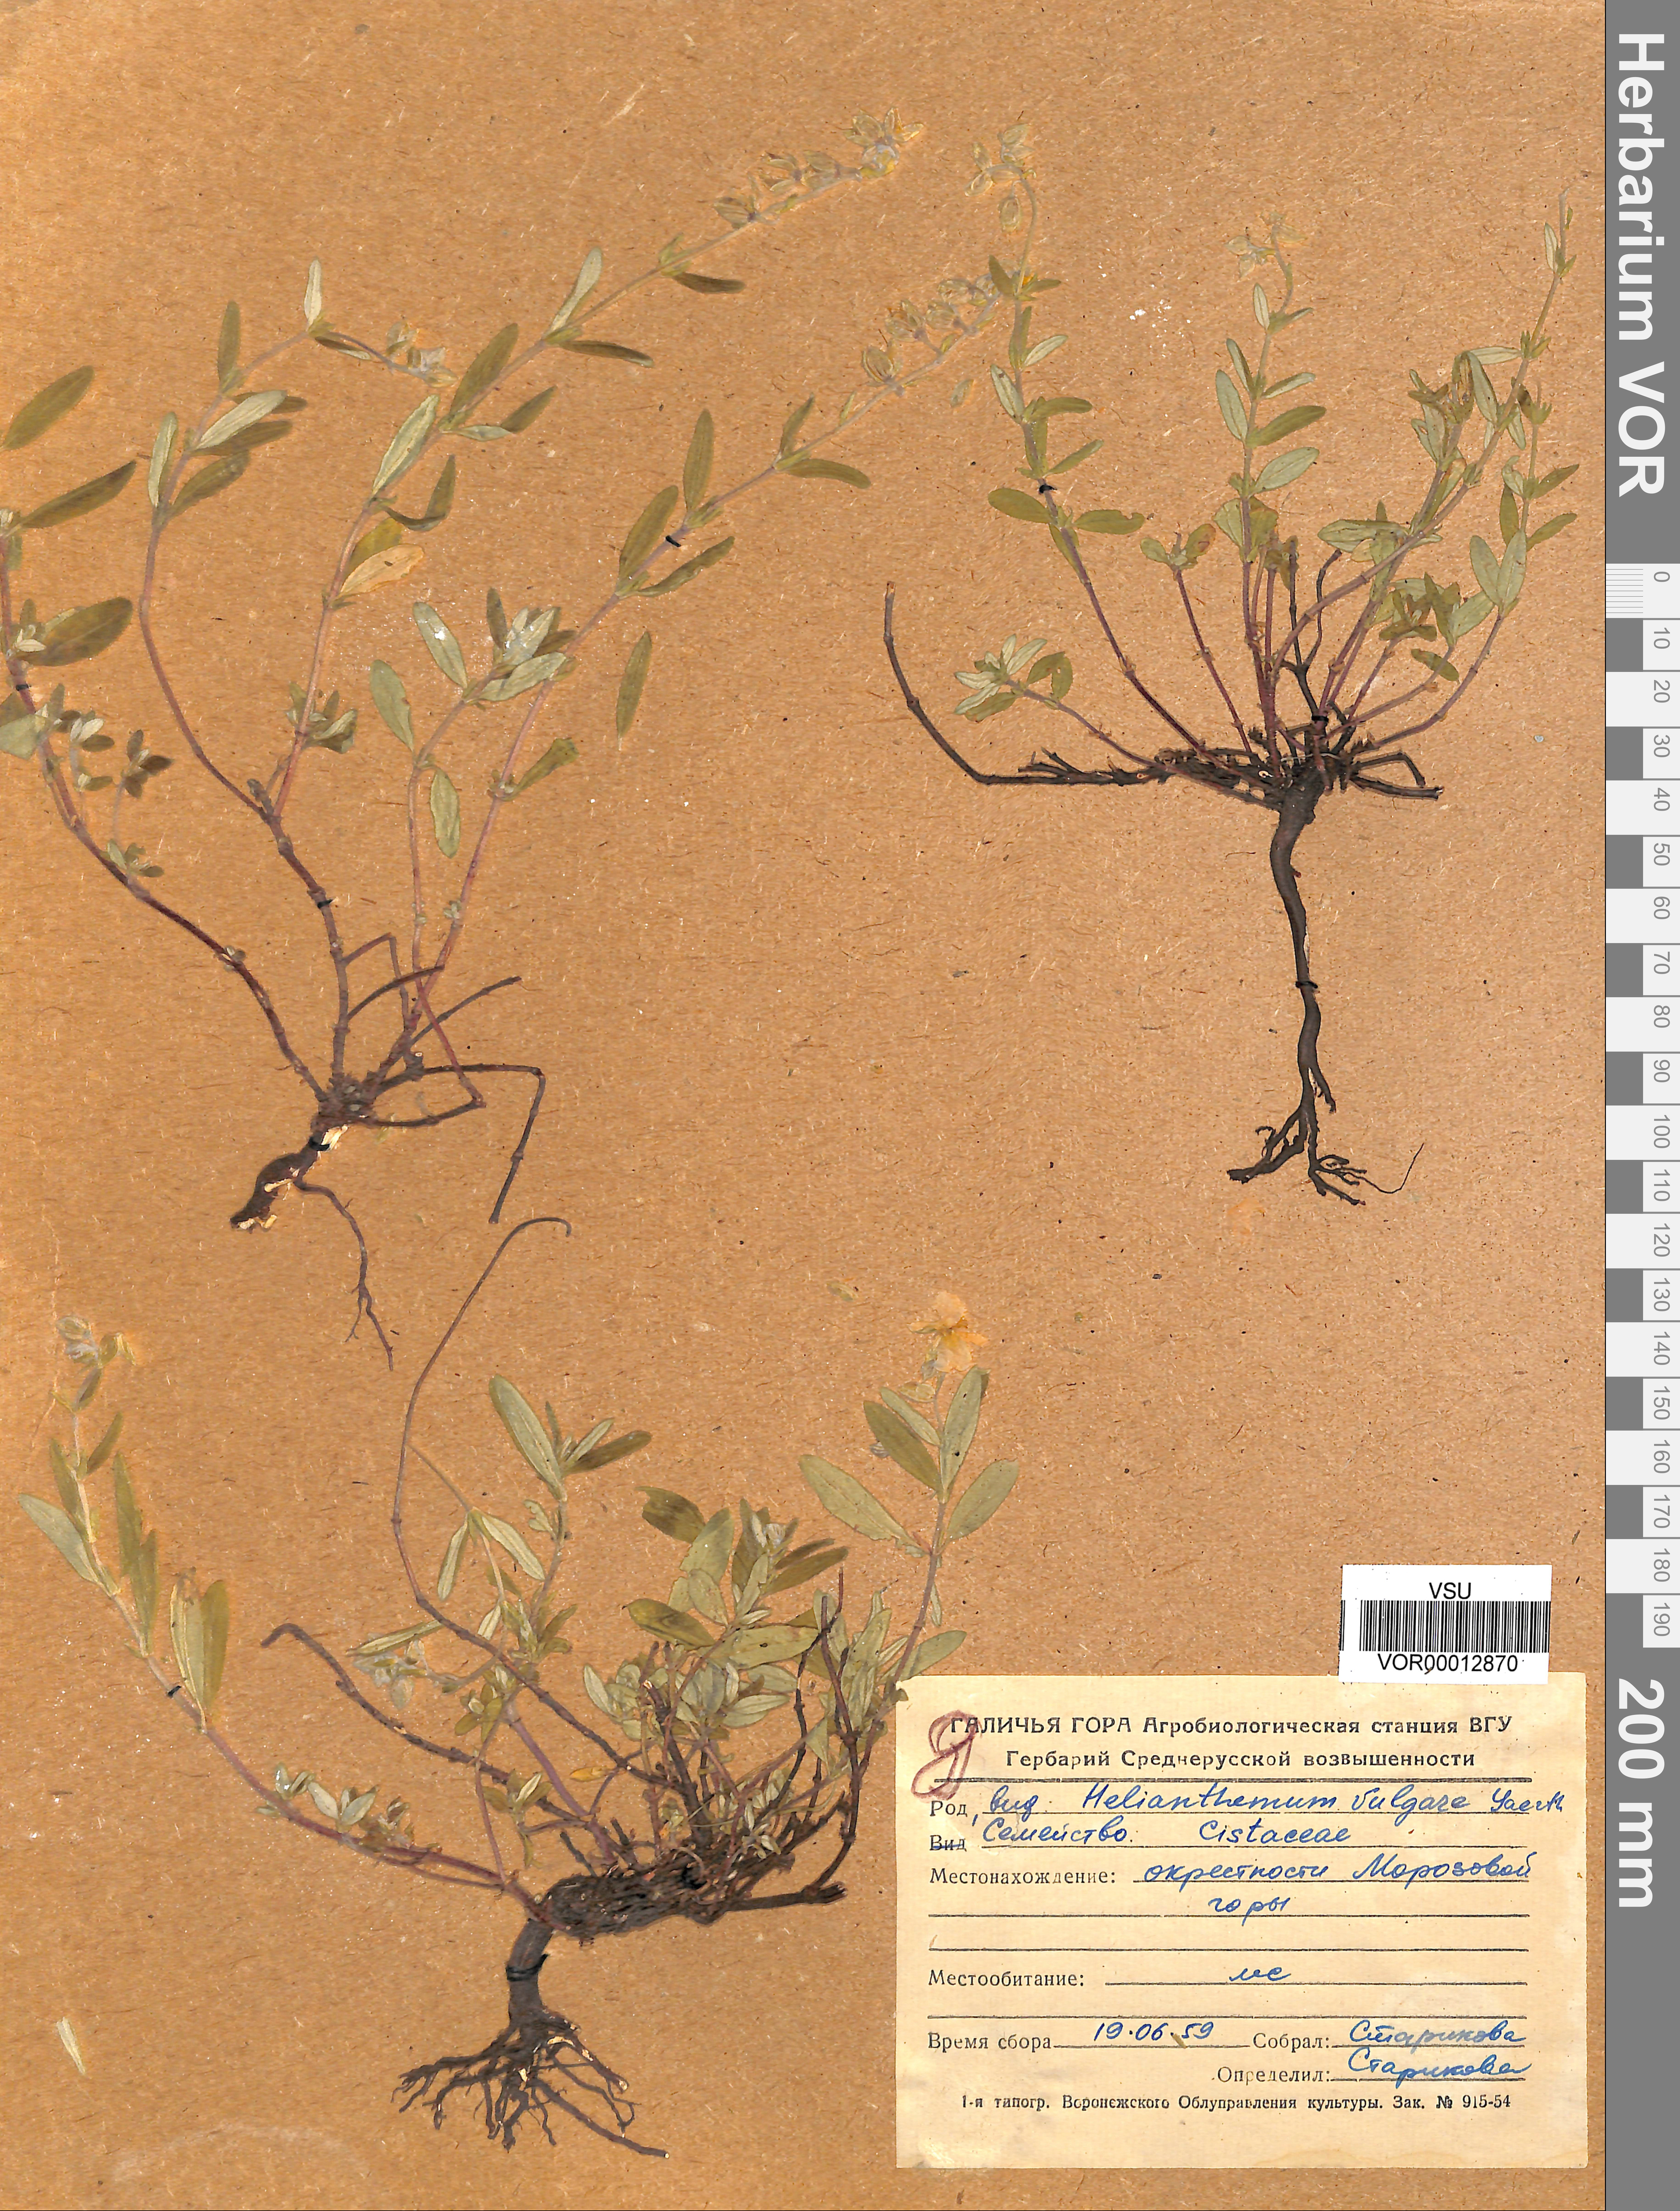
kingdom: Plantae
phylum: Tracheophyta
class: Magnoliopsida
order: Malvales
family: Cistaceae
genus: Helianthemum
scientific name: Helianthemum nummularium
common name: Common rock-rose
